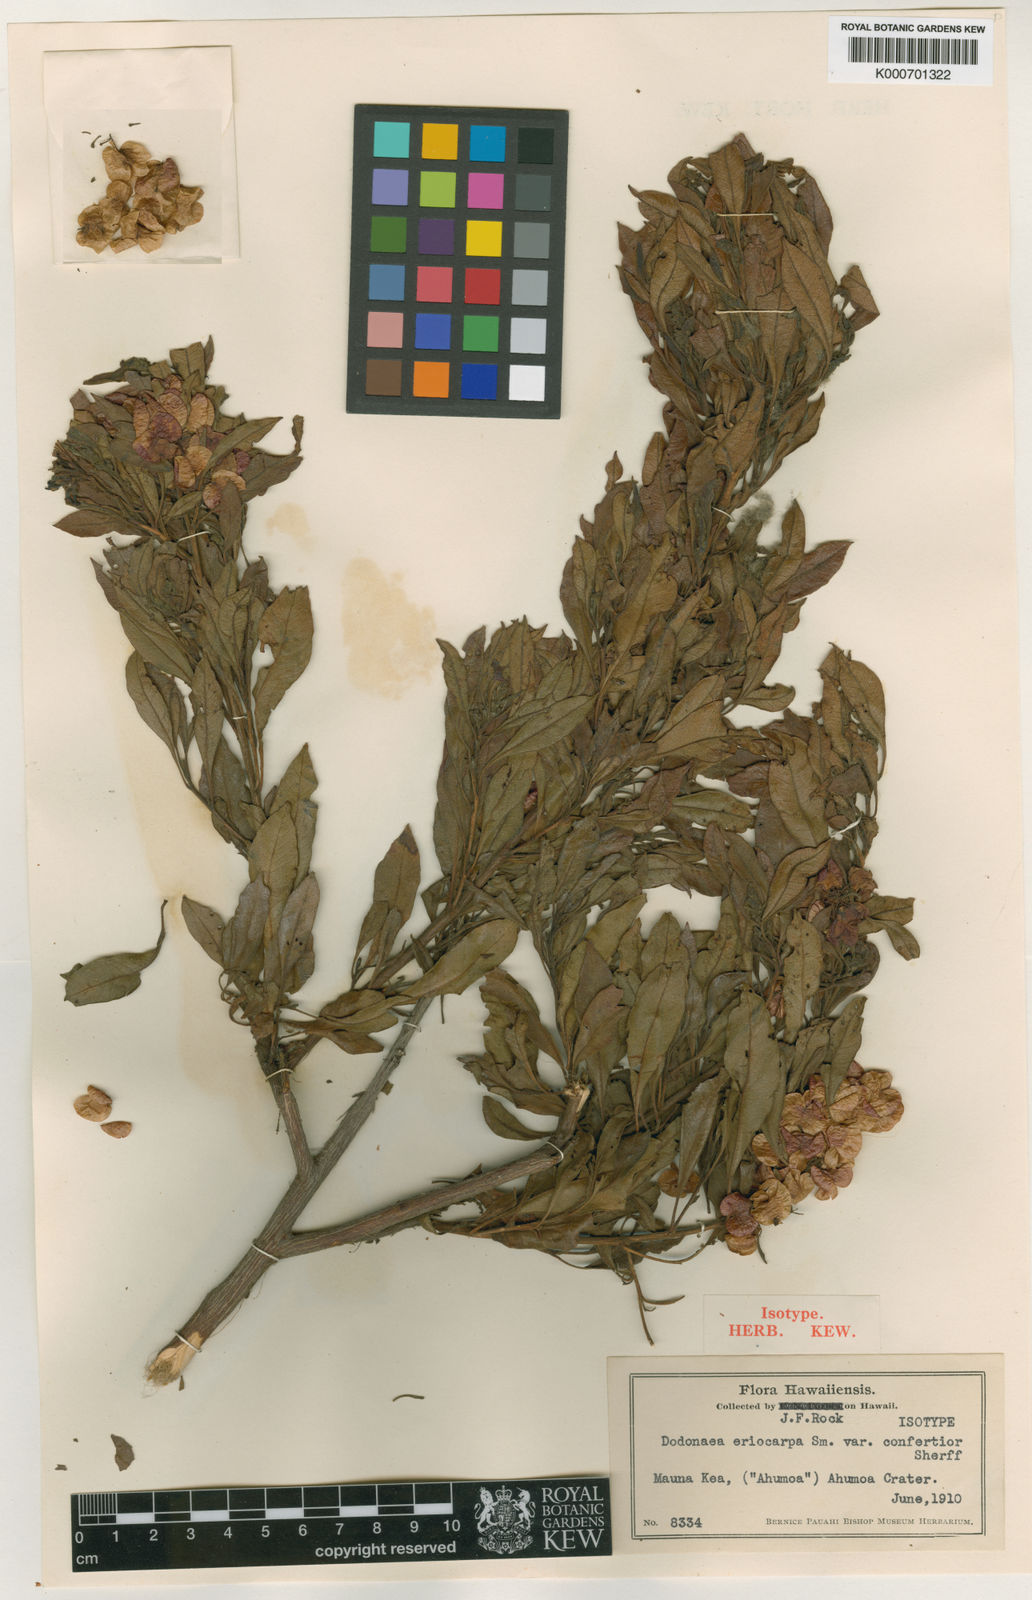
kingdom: Plantae
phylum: Tracheophyta
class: Magnoliopsida
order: Sapindales
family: Sapindaceae
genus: Dodonaea
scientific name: Dodonaea viscosa
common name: Hopbush
